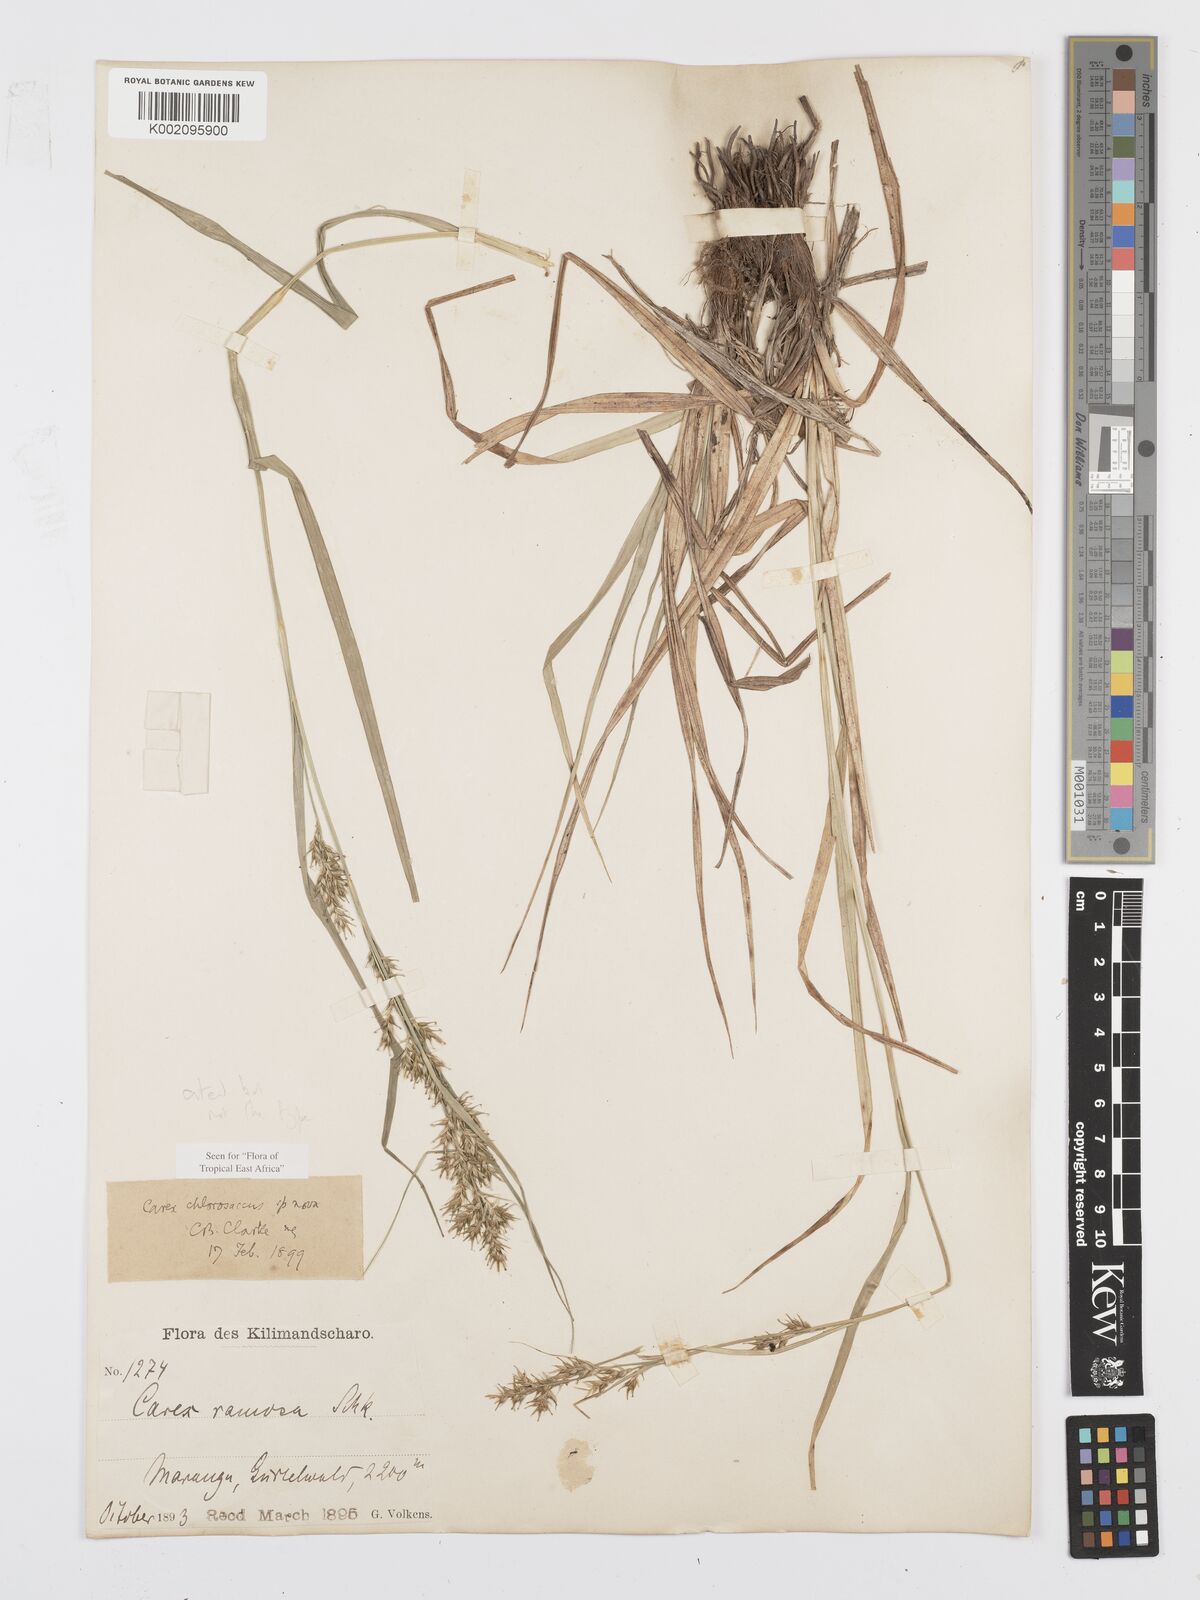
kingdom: Plantae
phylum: Tracheophyta
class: Liliopsida
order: Poales
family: Cyperaceae
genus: Carex
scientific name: Carex chlorosaccus
